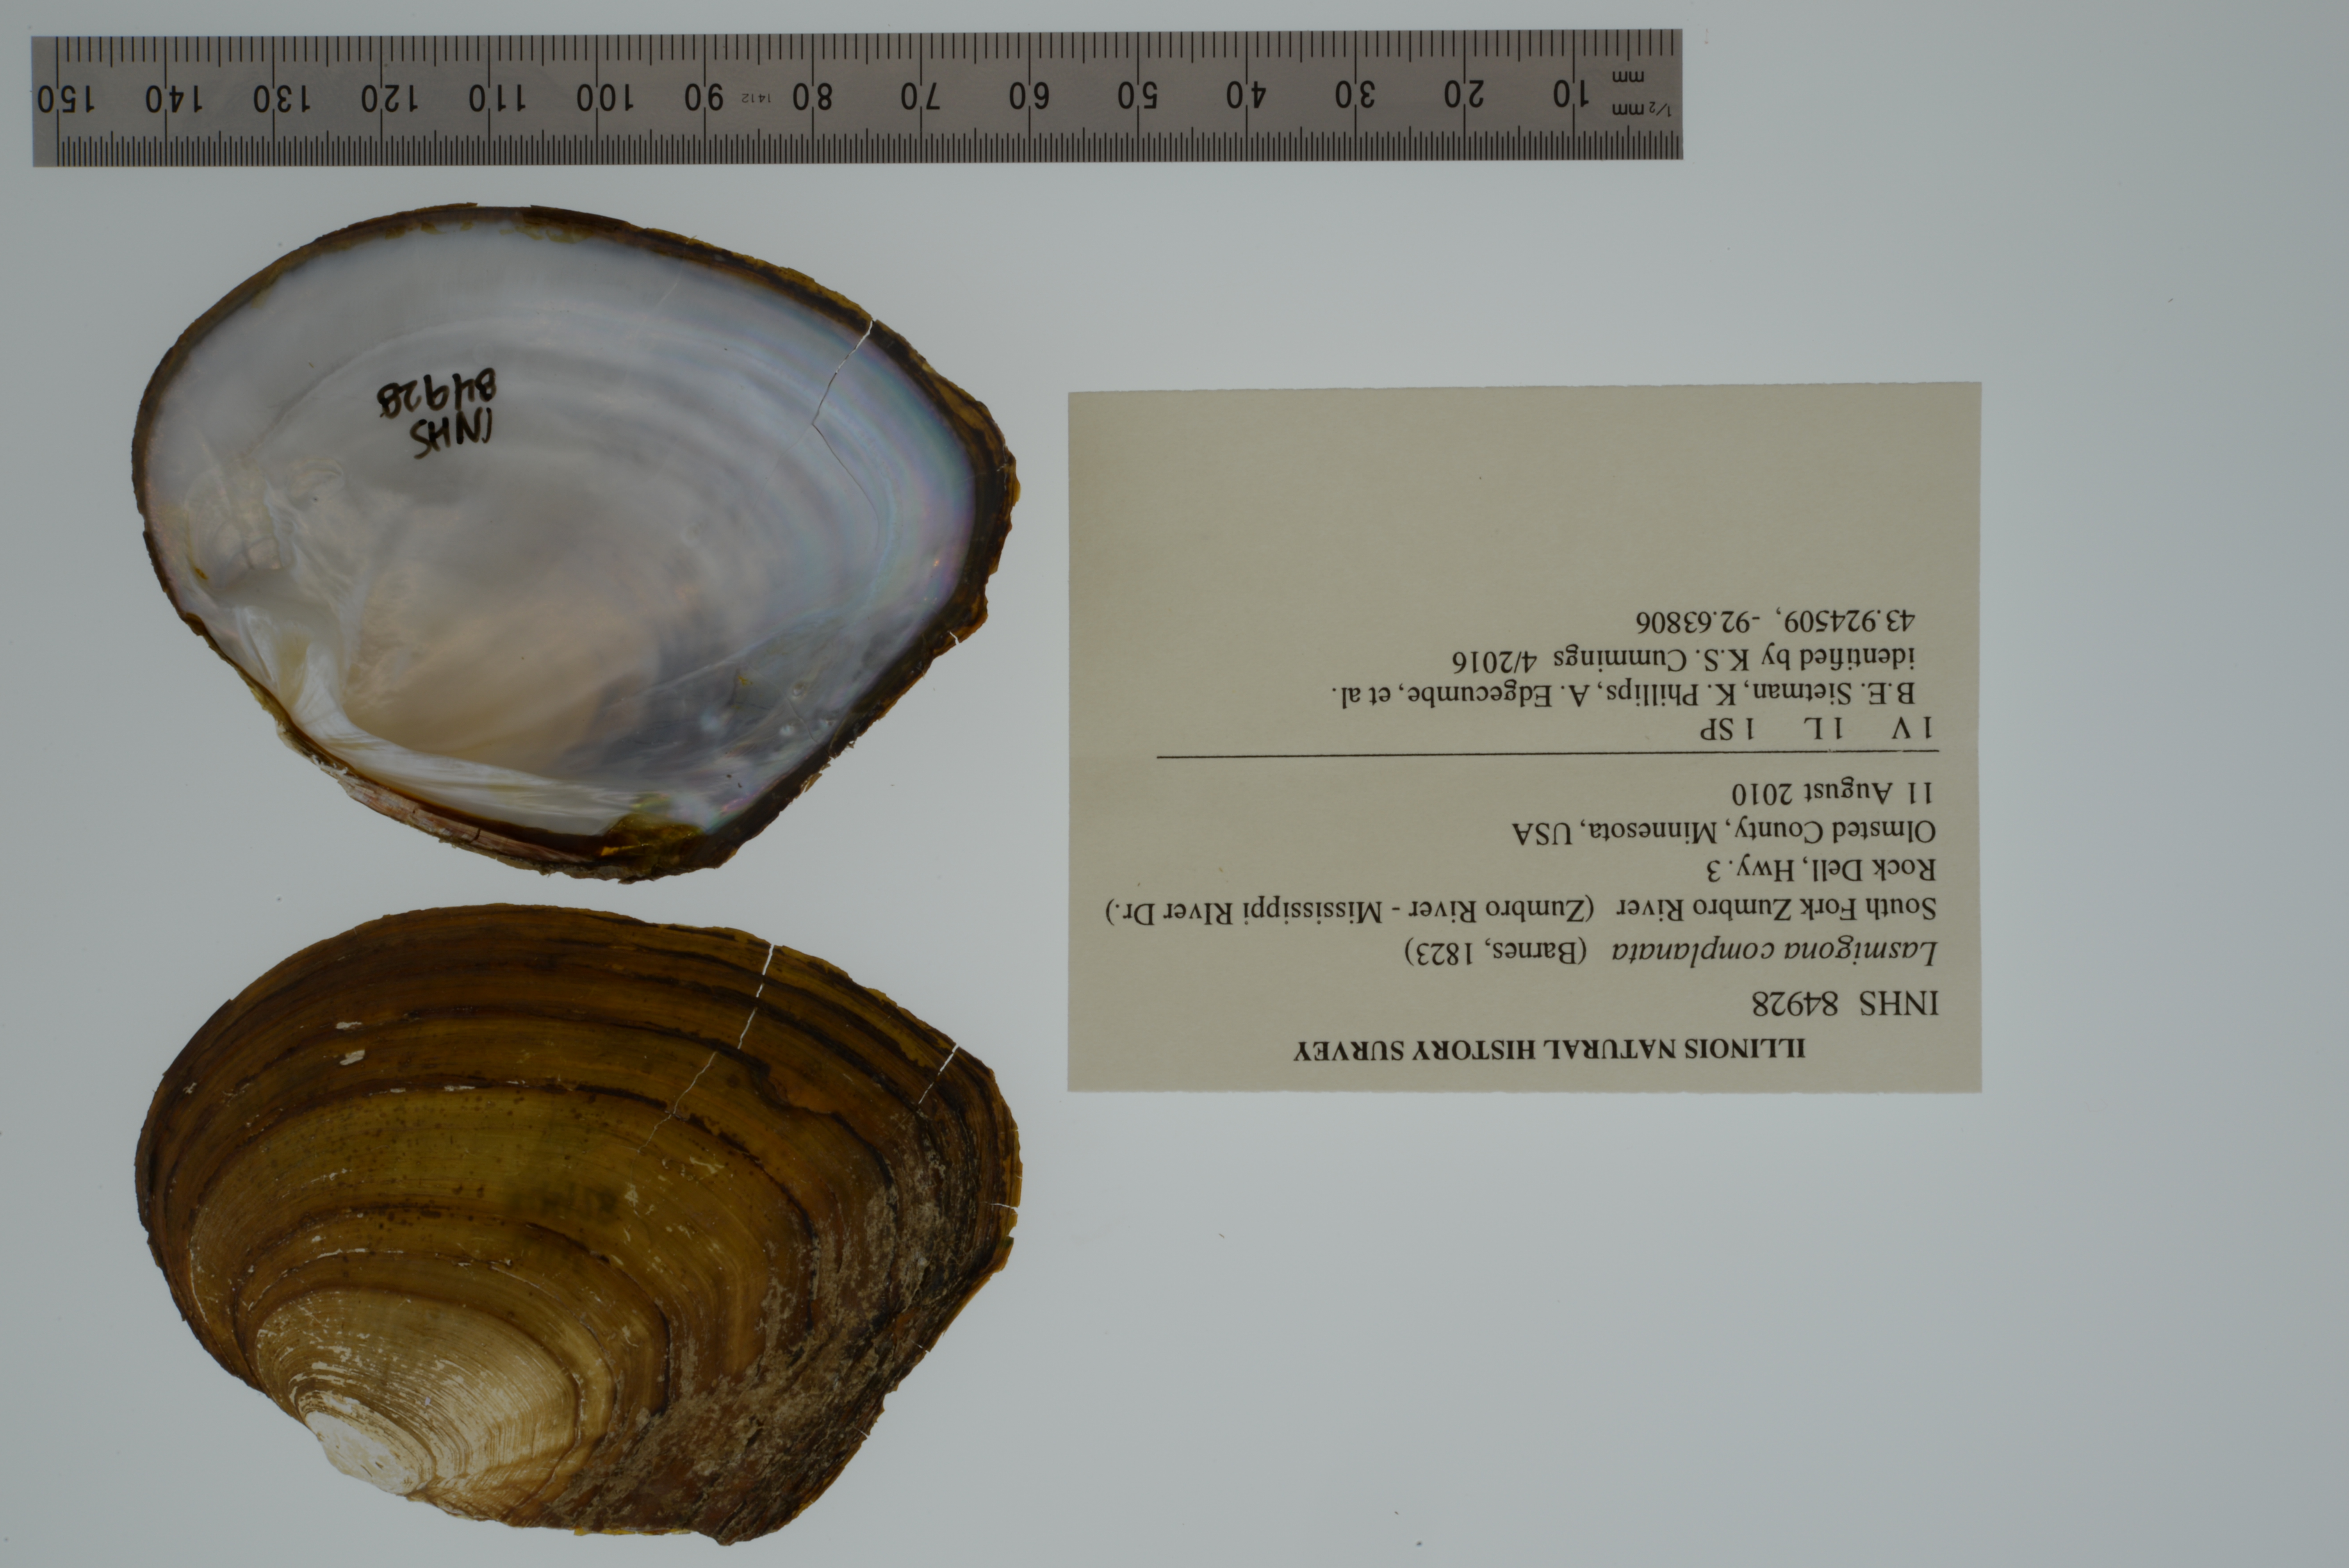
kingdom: Animalia
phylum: Mollusca
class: Bivalvia
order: Unionida
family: Unionidae
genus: Lasmigona
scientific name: Lasmigona complanata
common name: White heelsplitter
